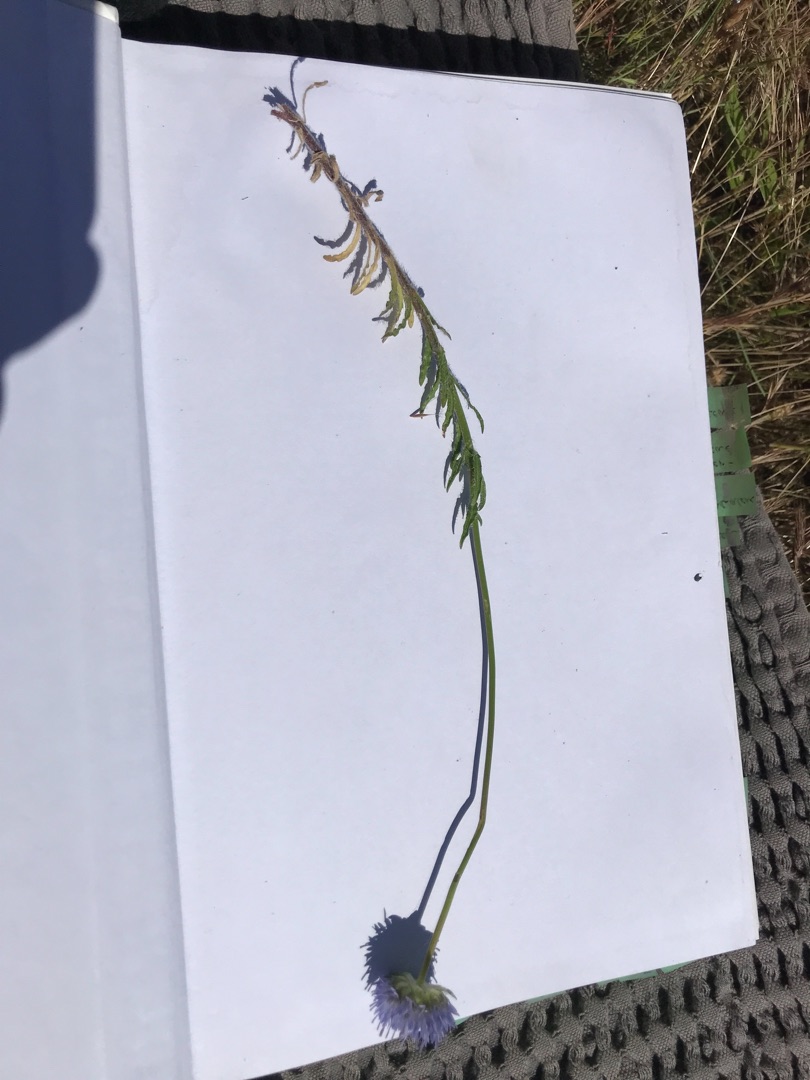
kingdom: Plantae
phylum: Tracheophyta
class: Magnoliopsida
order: Asterales
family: Campanulaceae
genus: Jasione
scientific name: Jasione montana
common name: Blåmunke
